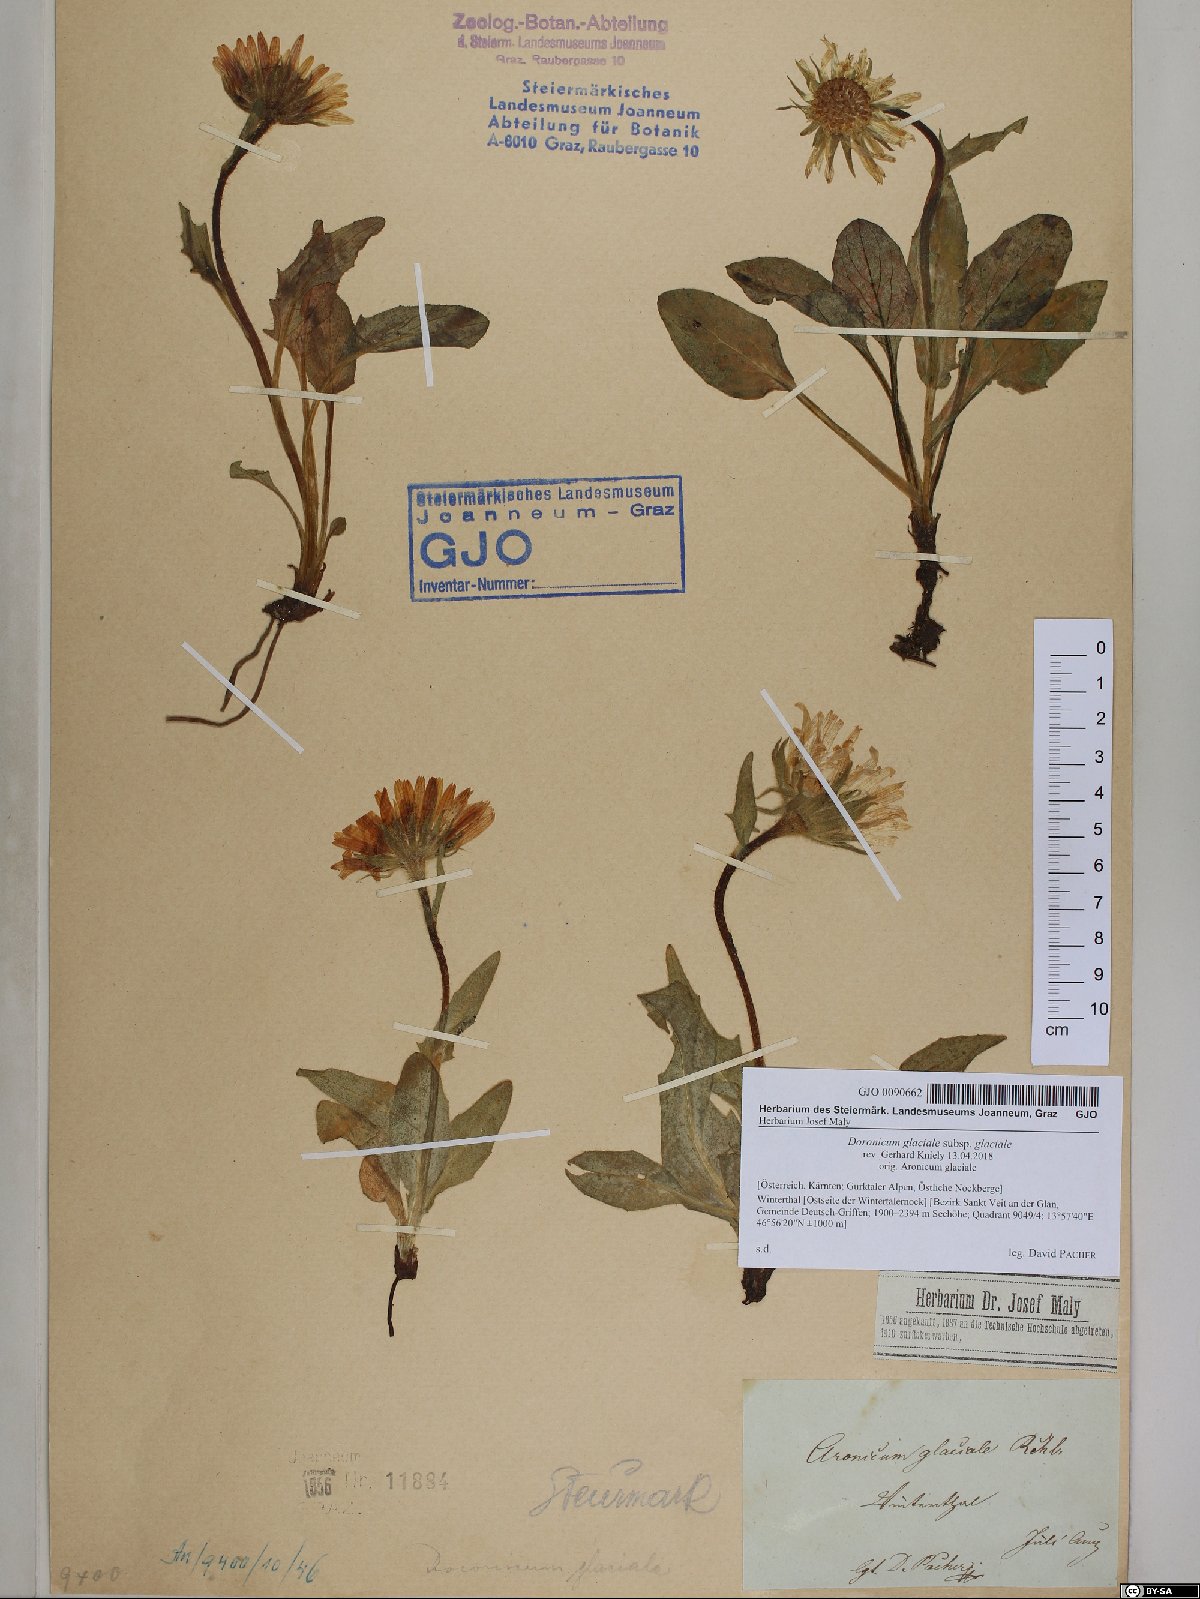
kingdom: Plantae
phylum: Tracheophyta
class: Magnoliopsida
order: Asterales
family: Asteraceae
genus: Doronicum
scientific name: Doronicum glaciale
